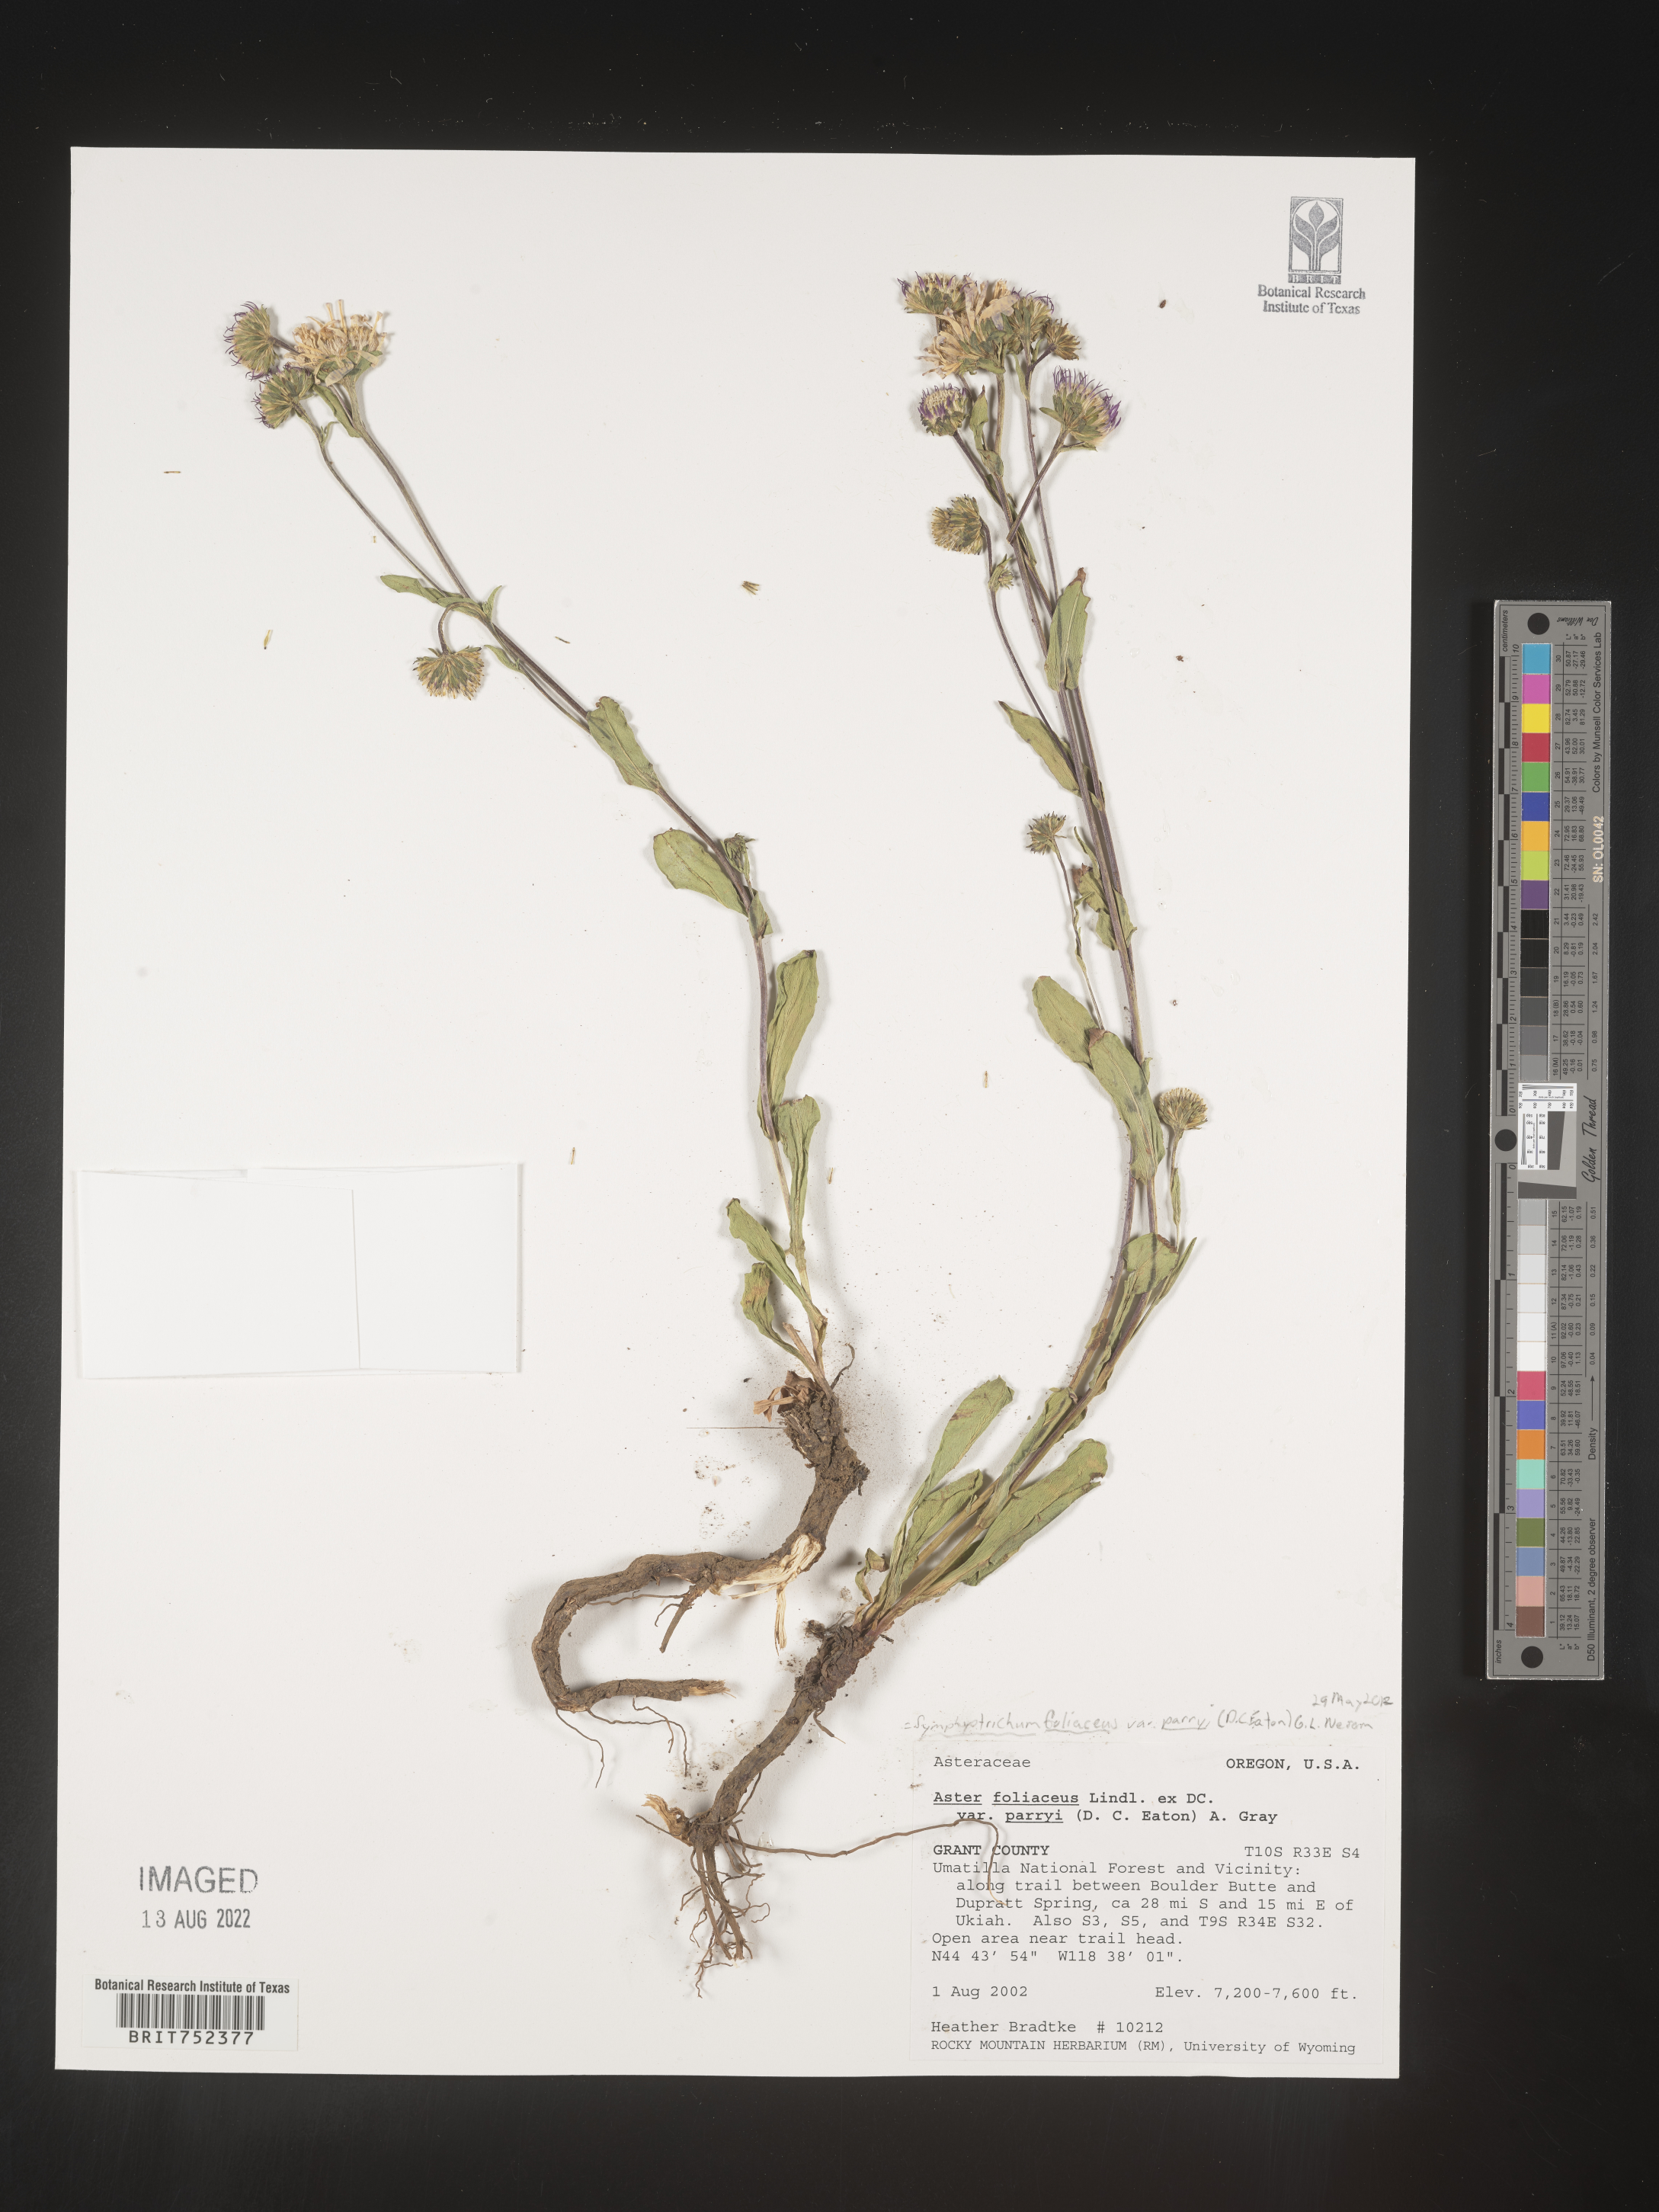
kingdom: Plantae
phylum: Tracheophyta
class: Magnoliopsida
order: Asterales
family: Asteraceae
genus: Symphyotrichum
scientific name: Symphyotrichum foliaceum
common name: Leafy aster
